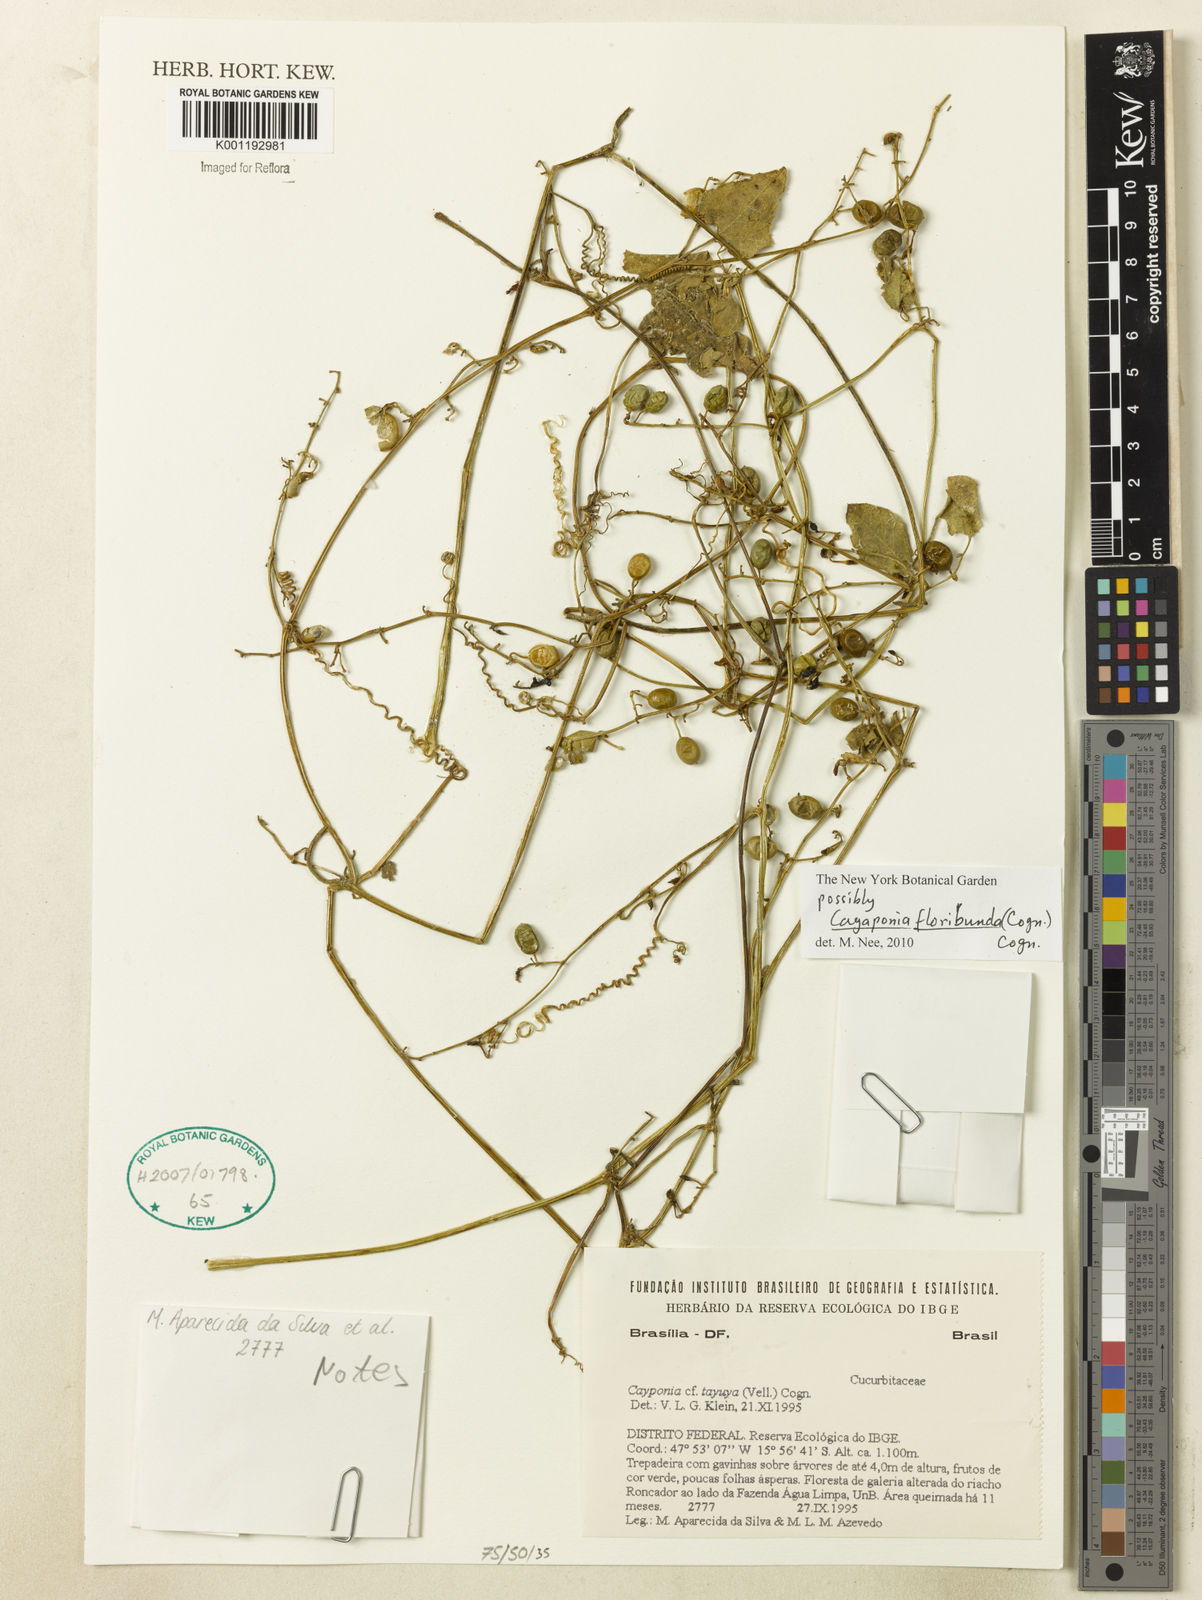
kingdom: Plantae
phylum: Tracheophyta
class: Magnoliopsida
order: Cucurbitales
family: Cucurbitaceae
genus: Cayaponia
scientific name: Cayaponia floribunda
